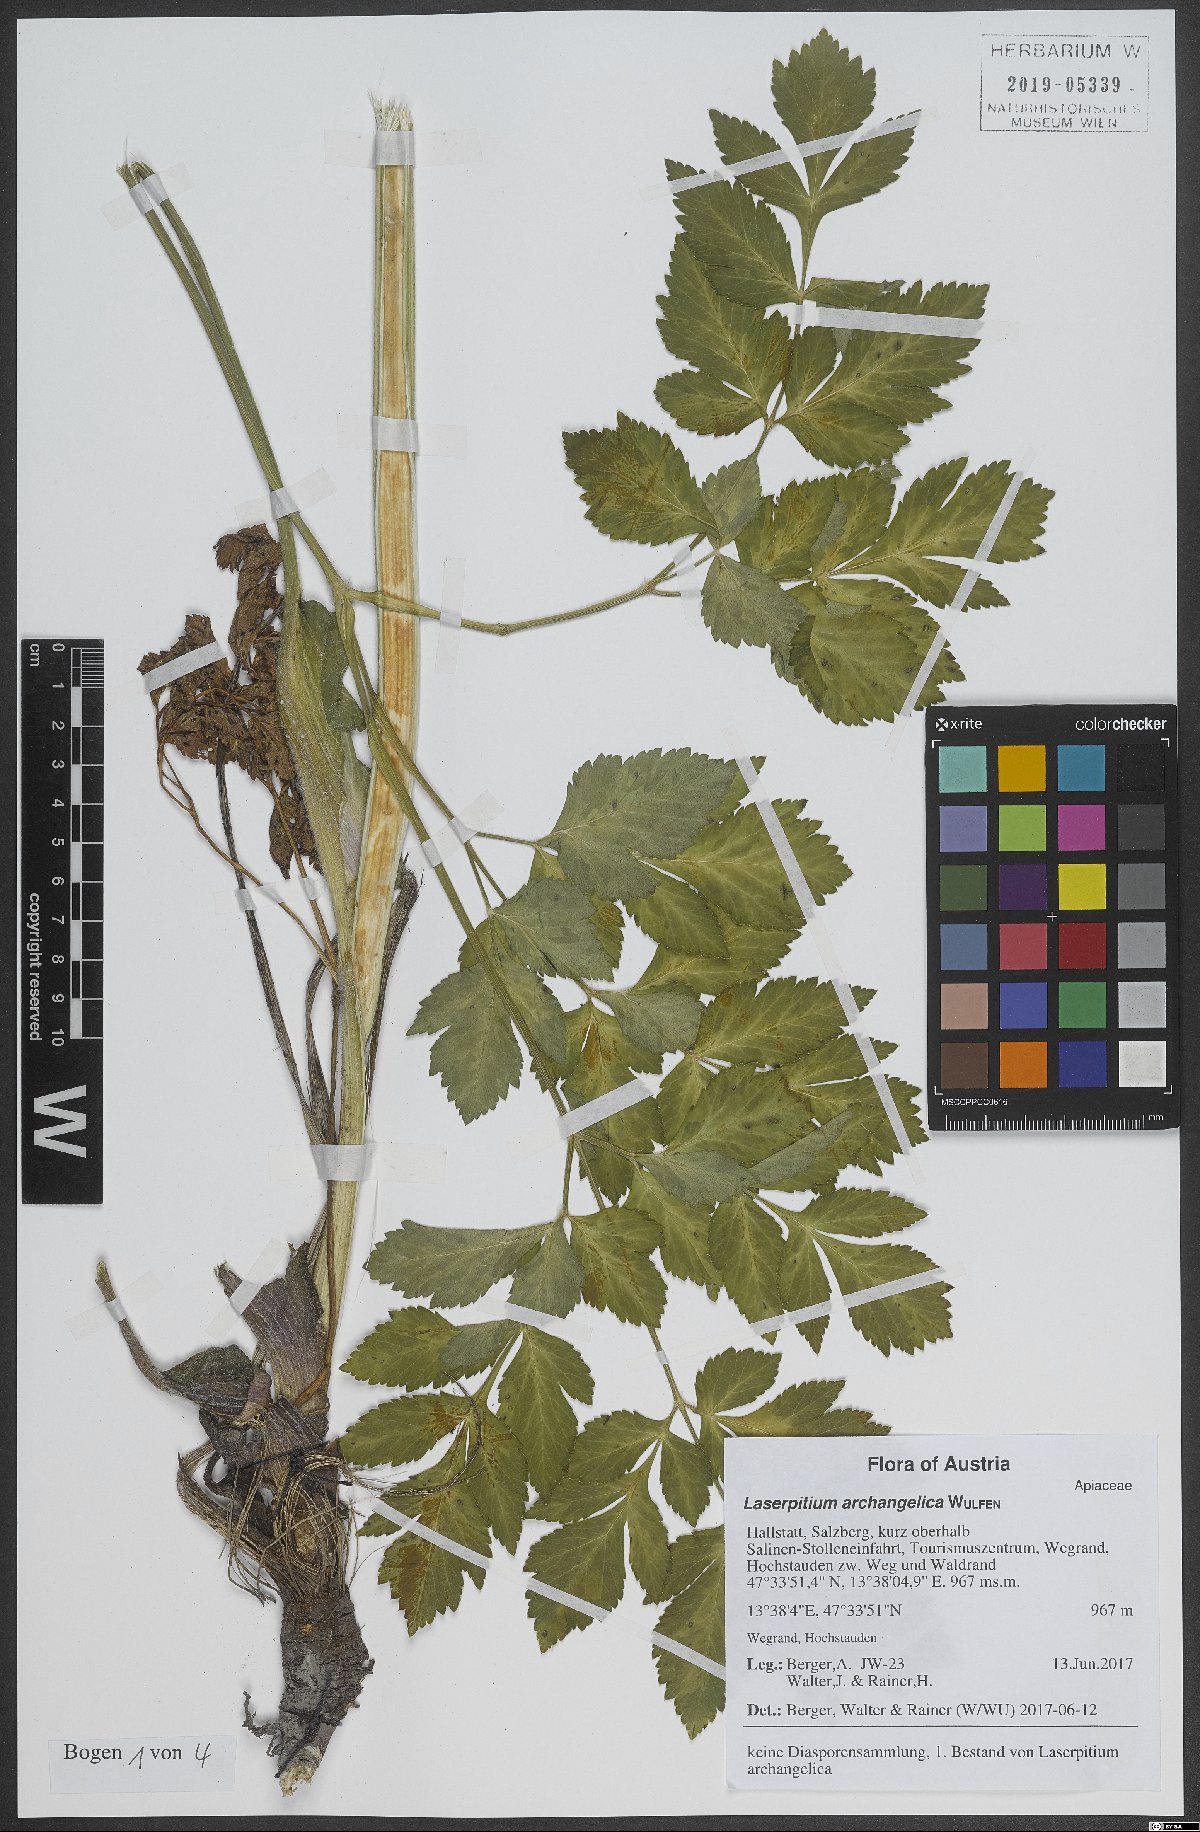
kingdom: Plantae
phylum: Tracheophyta
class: Magnoliopsida
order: Apiales
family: Apiaceae
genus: Laser
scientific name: Laser archangelica
